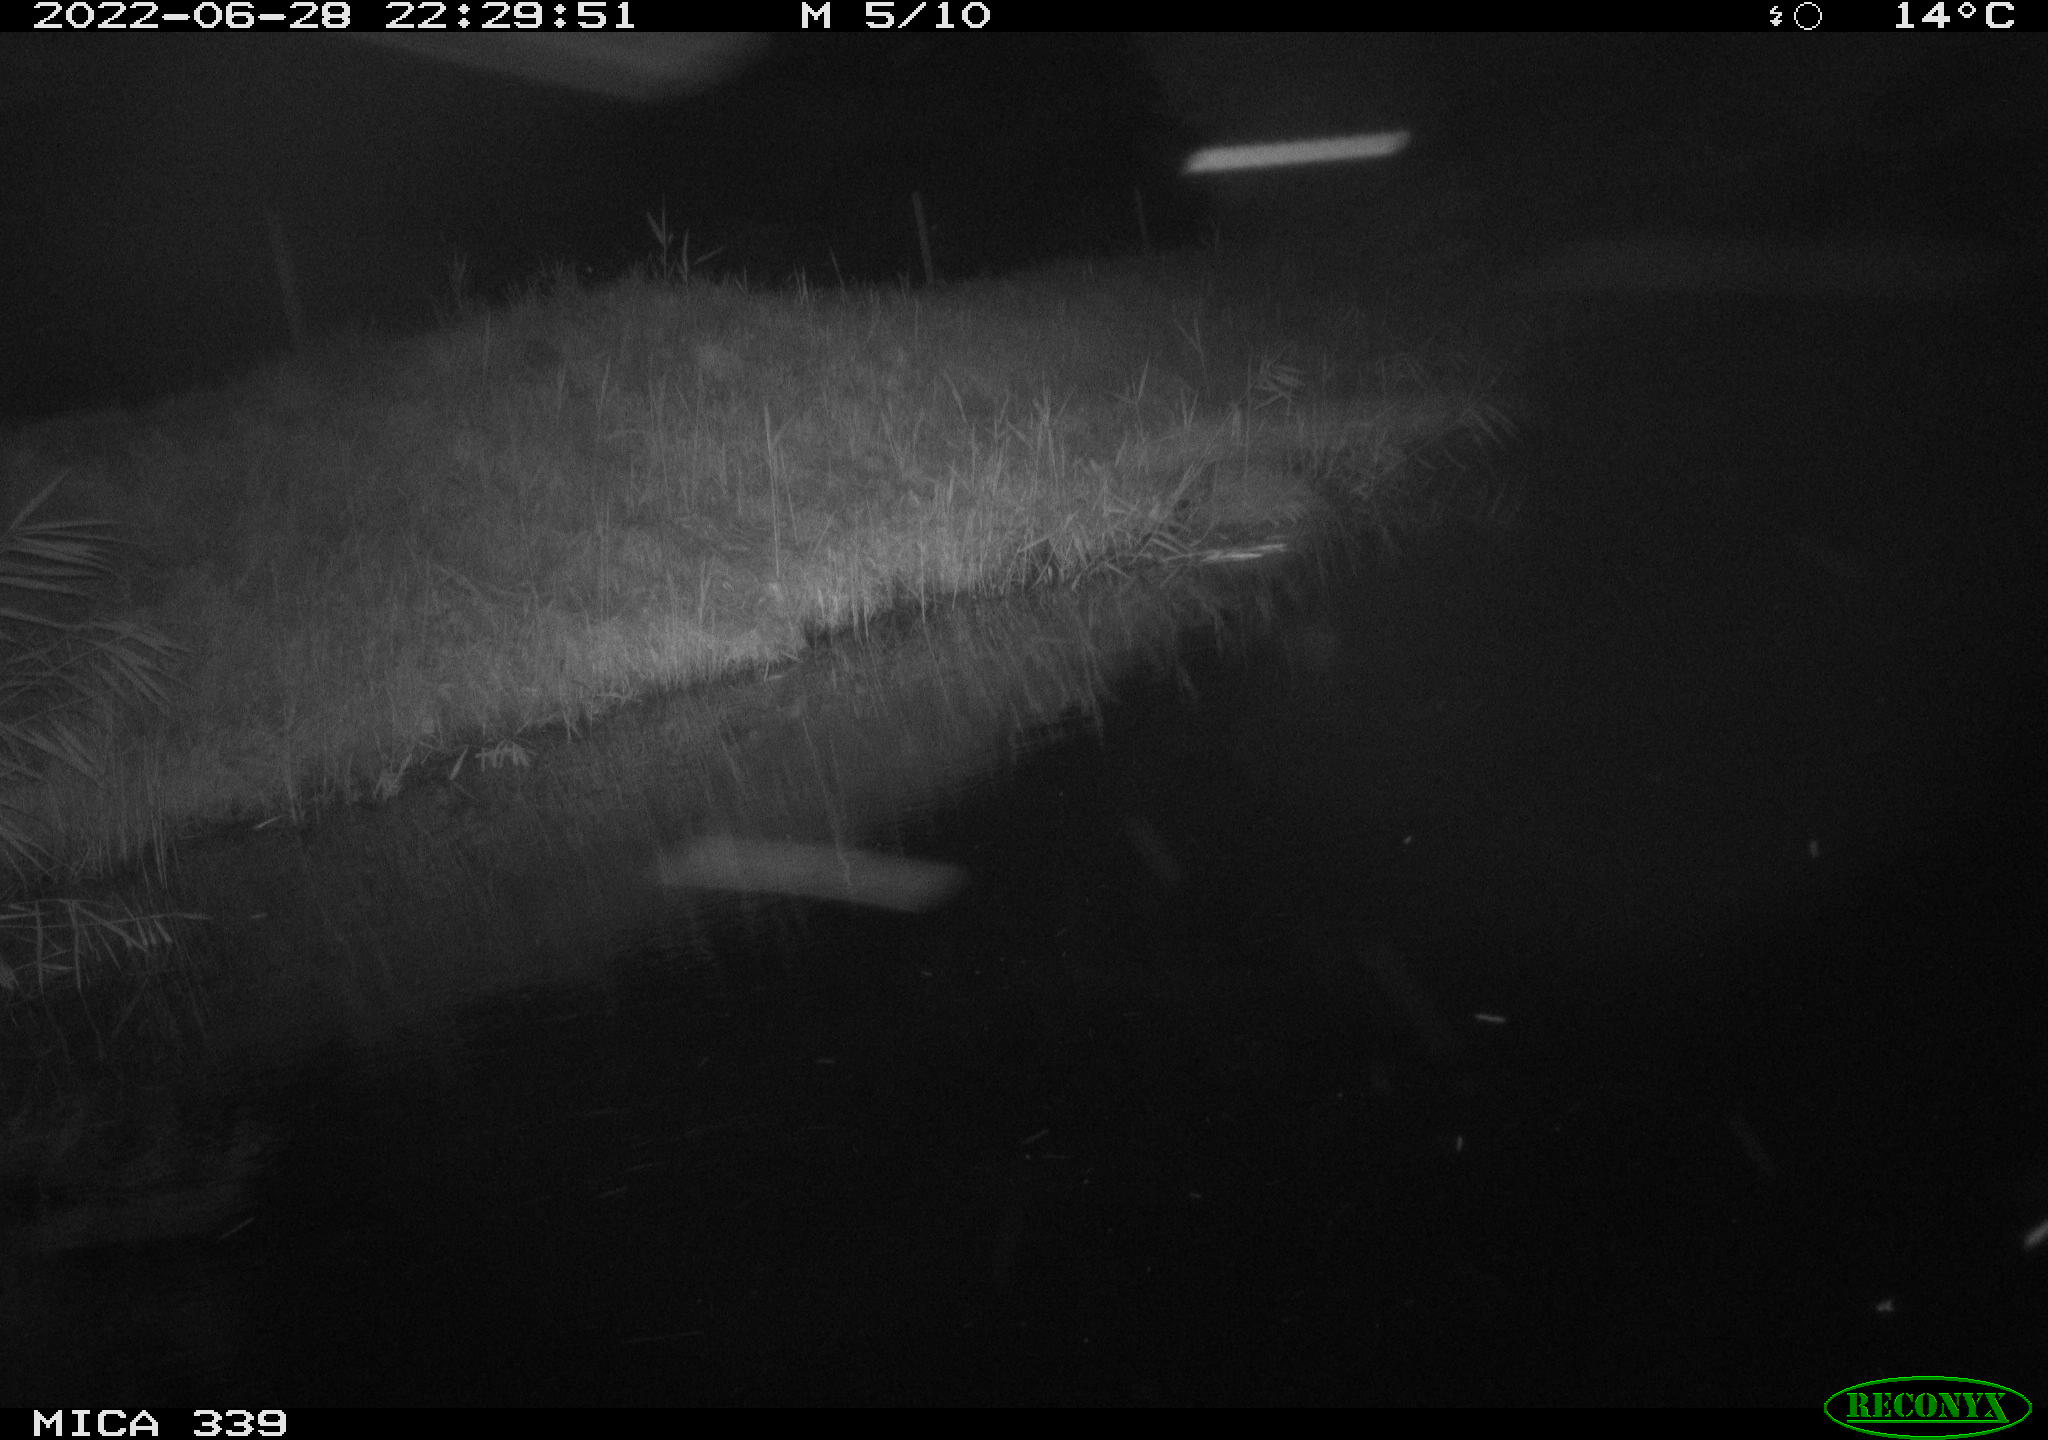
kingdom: Animalia
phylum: Chordata
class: Aves
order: Pelecaniformes
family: Ardeidae
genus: Ardea
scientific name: Ardea cinerea
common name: Grey heron
